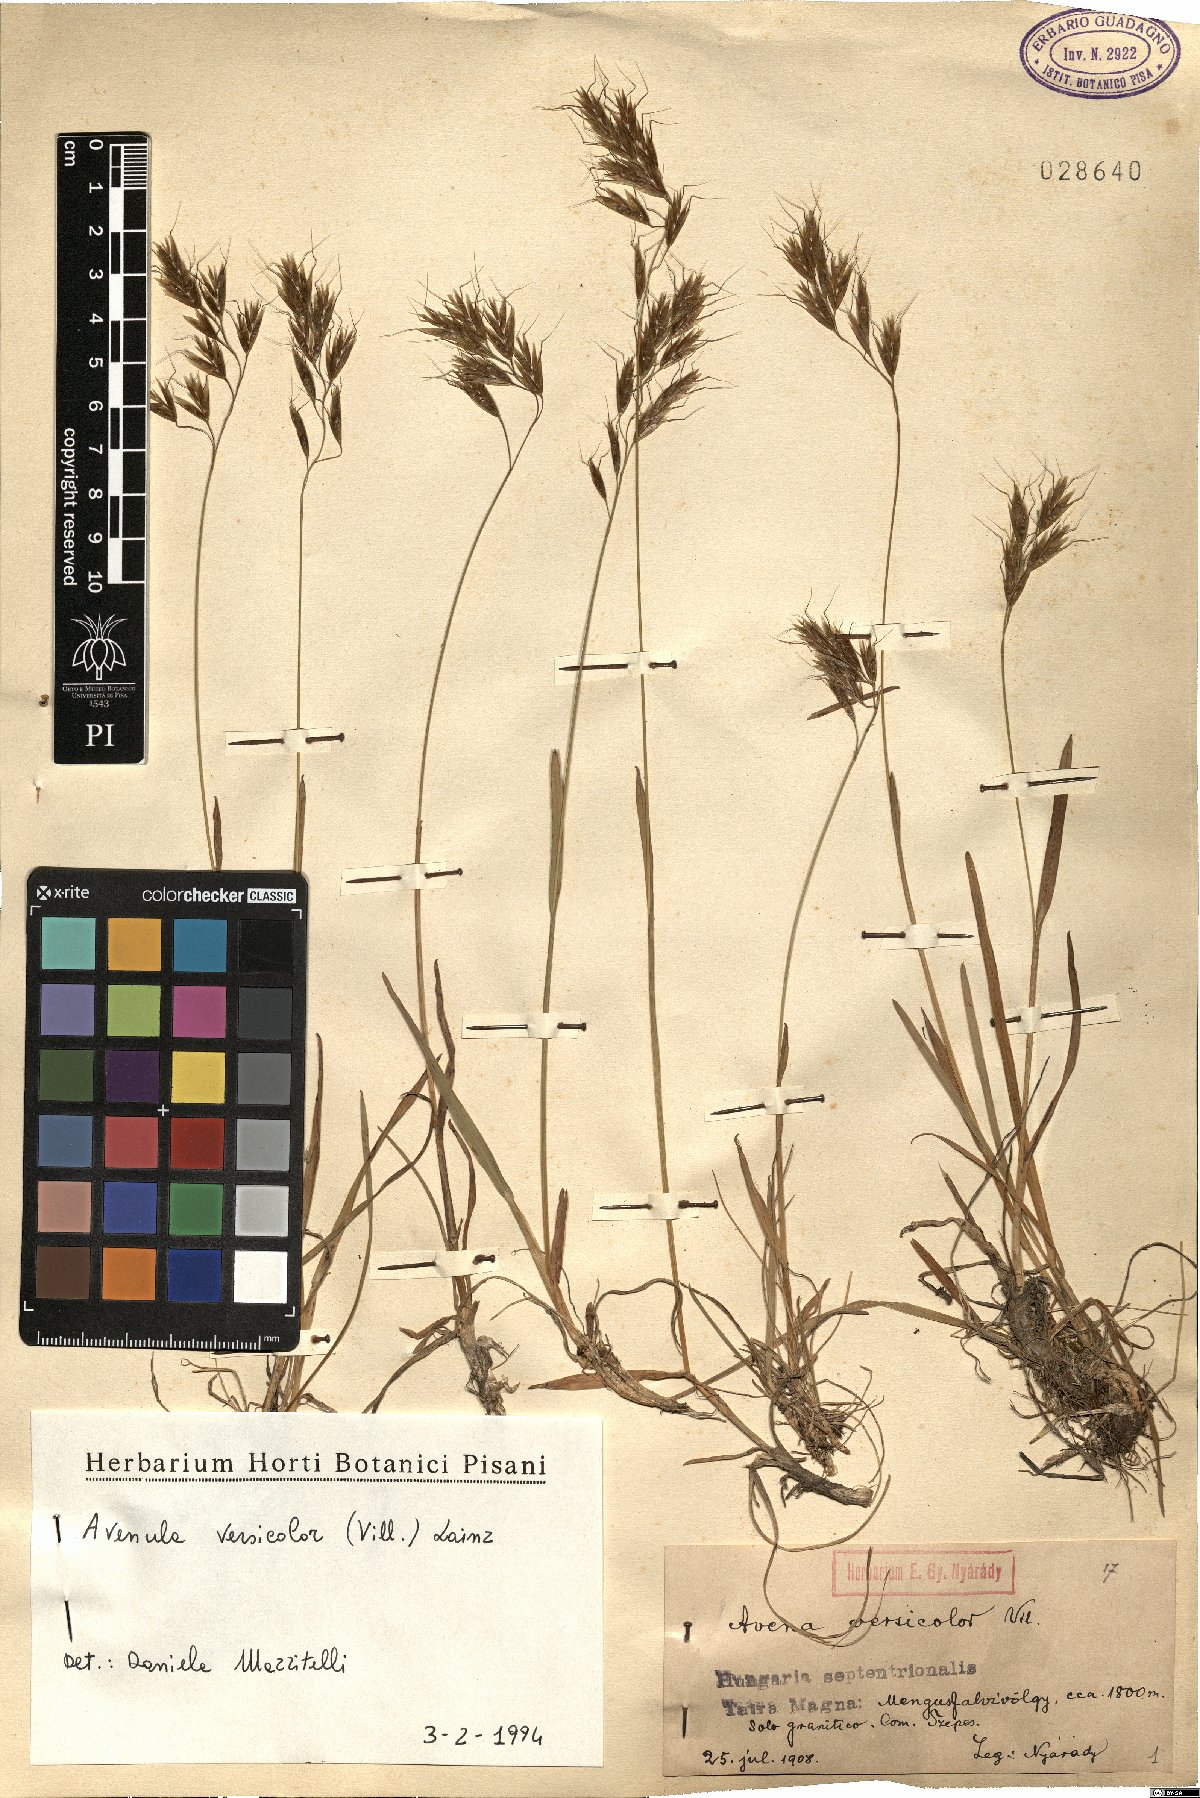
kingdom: Plantae
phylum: Tracheophyta
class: Liliopsida
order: Poales
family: Poaceae
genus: Helictochloa
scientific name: Helictochloa versicolor
